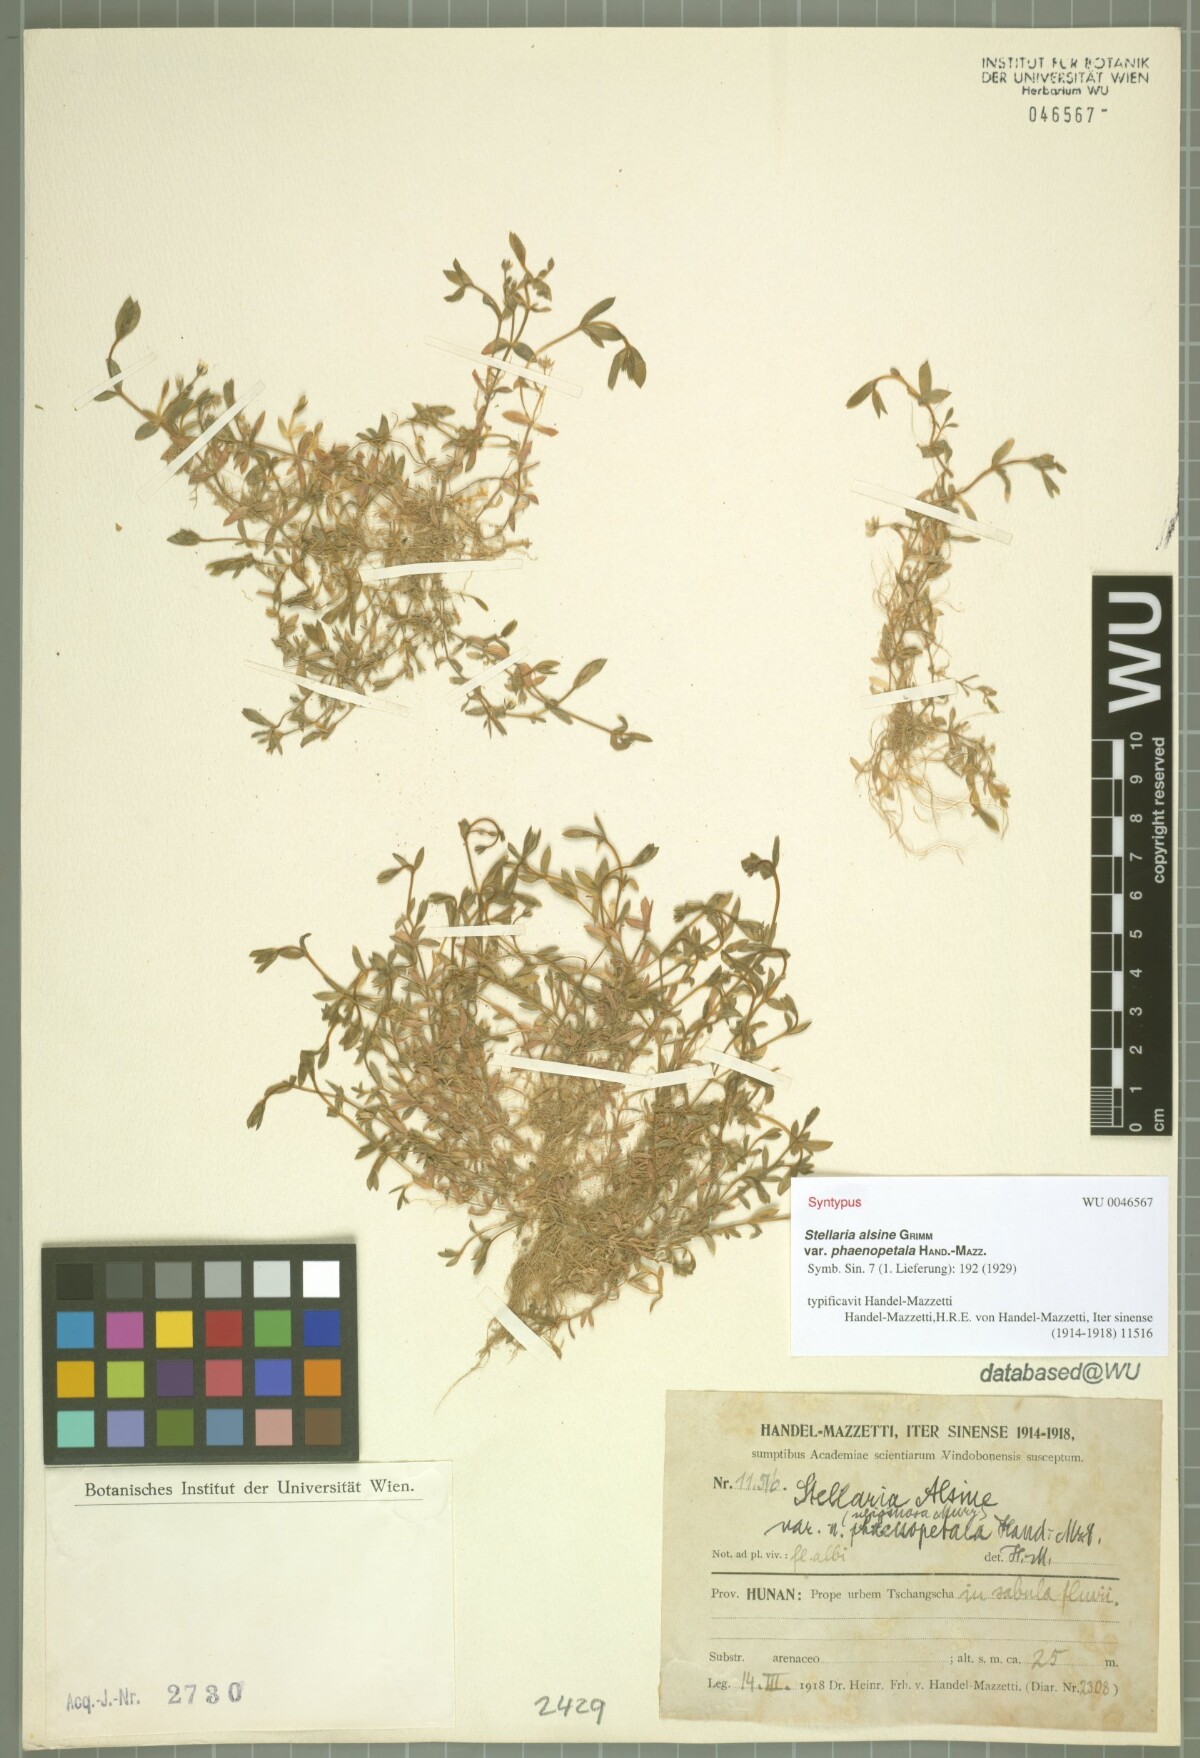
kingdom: Plantae
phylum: Tracheophyta
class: Magnoliopsida
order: Caryophyllales
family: Caryophyllaceae
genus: Stellaria
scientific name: Stellaria alsine
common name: Bog stitchwort
